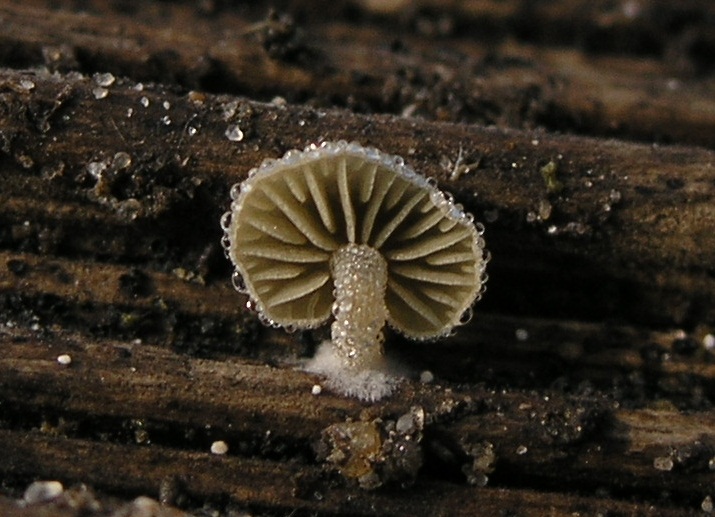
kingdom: Fungi
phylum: Basidiomycota
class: Agaricomycetes
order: Agaricales
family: Crepidotaceae
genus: Simocybe
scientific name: Simocybe haustellaris
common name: skæv skyggehat
